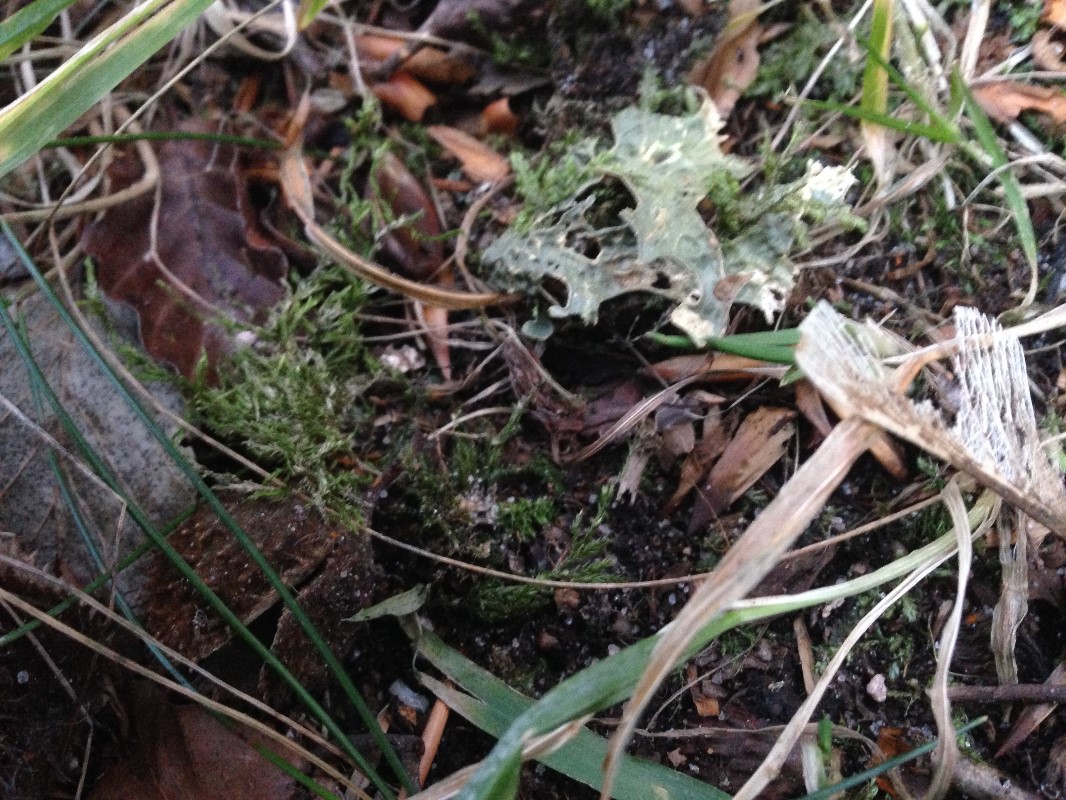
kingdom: Fungi
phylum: Ascomycota
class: Lecanoromycetes
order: Peltigerales
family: Lobariaceae
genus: Lobaria
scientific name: Lobaria pulmonaria
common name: almindelig lungelav
